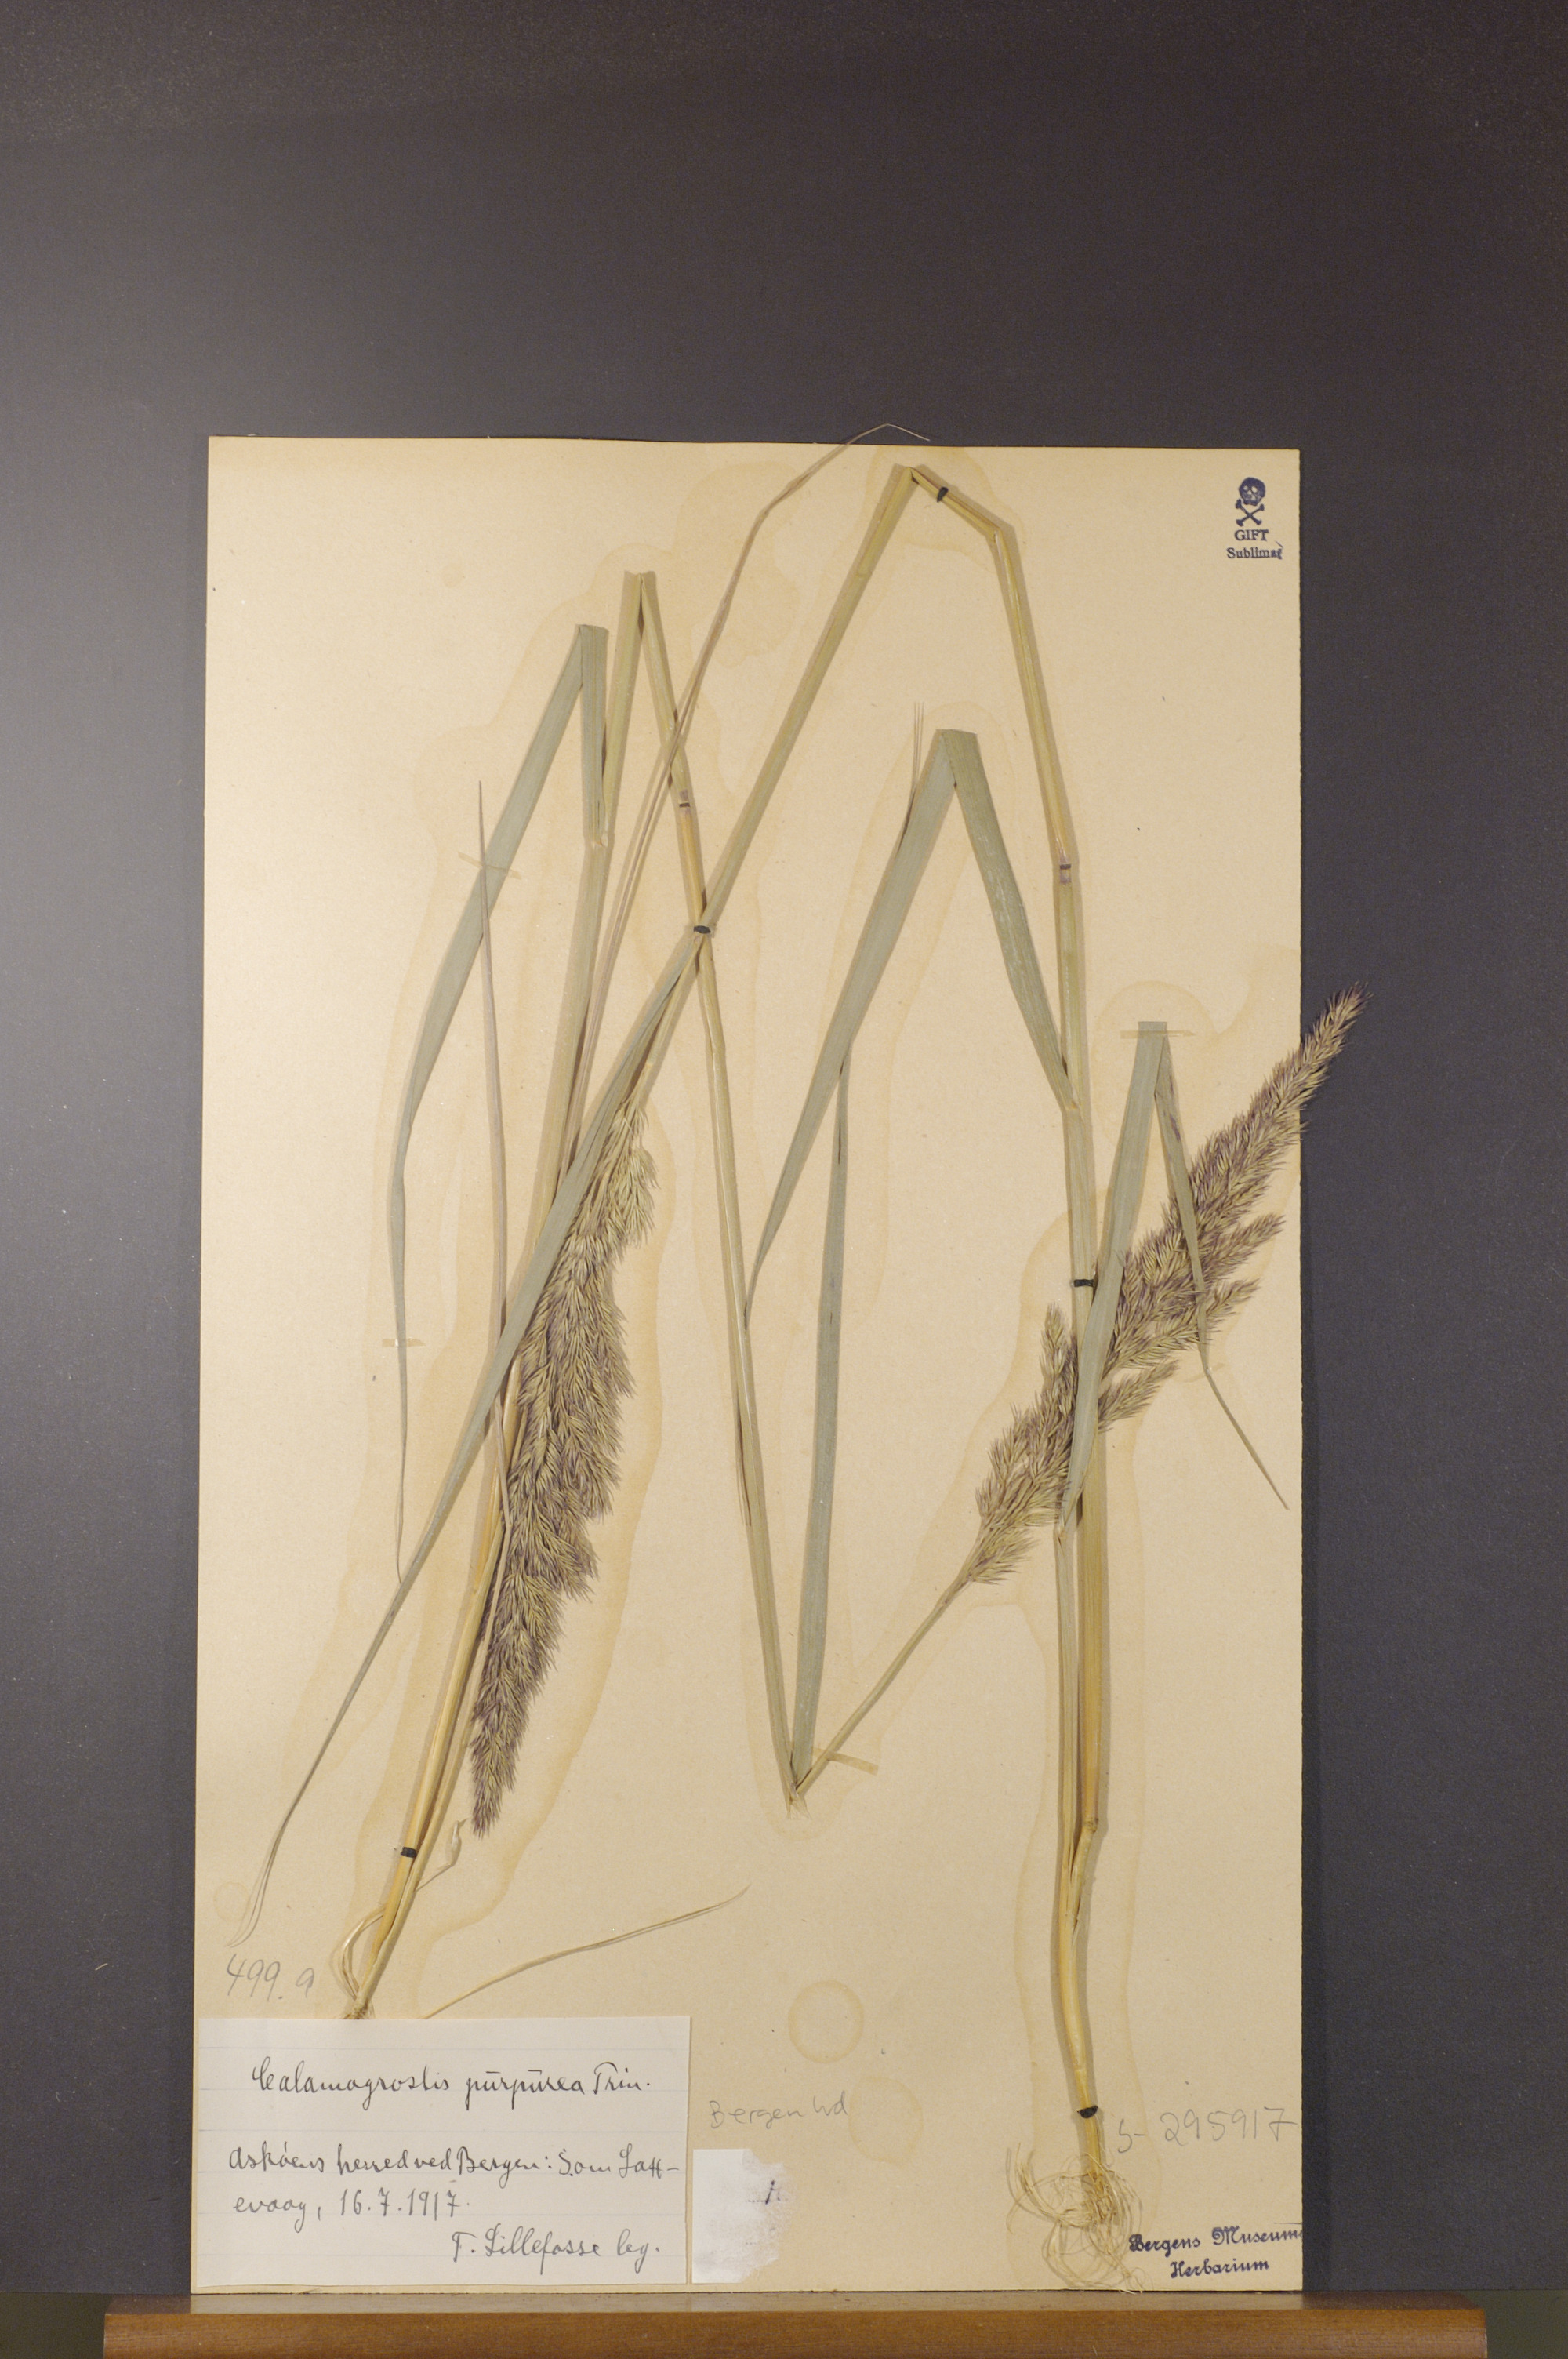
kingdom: Plantae
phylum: Tracheophyta
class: Liliopsida
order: Poales
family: Poaceae
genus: Calamagrostis
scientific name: Calamagrostis purpurea
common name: Scandinavian small-reed
